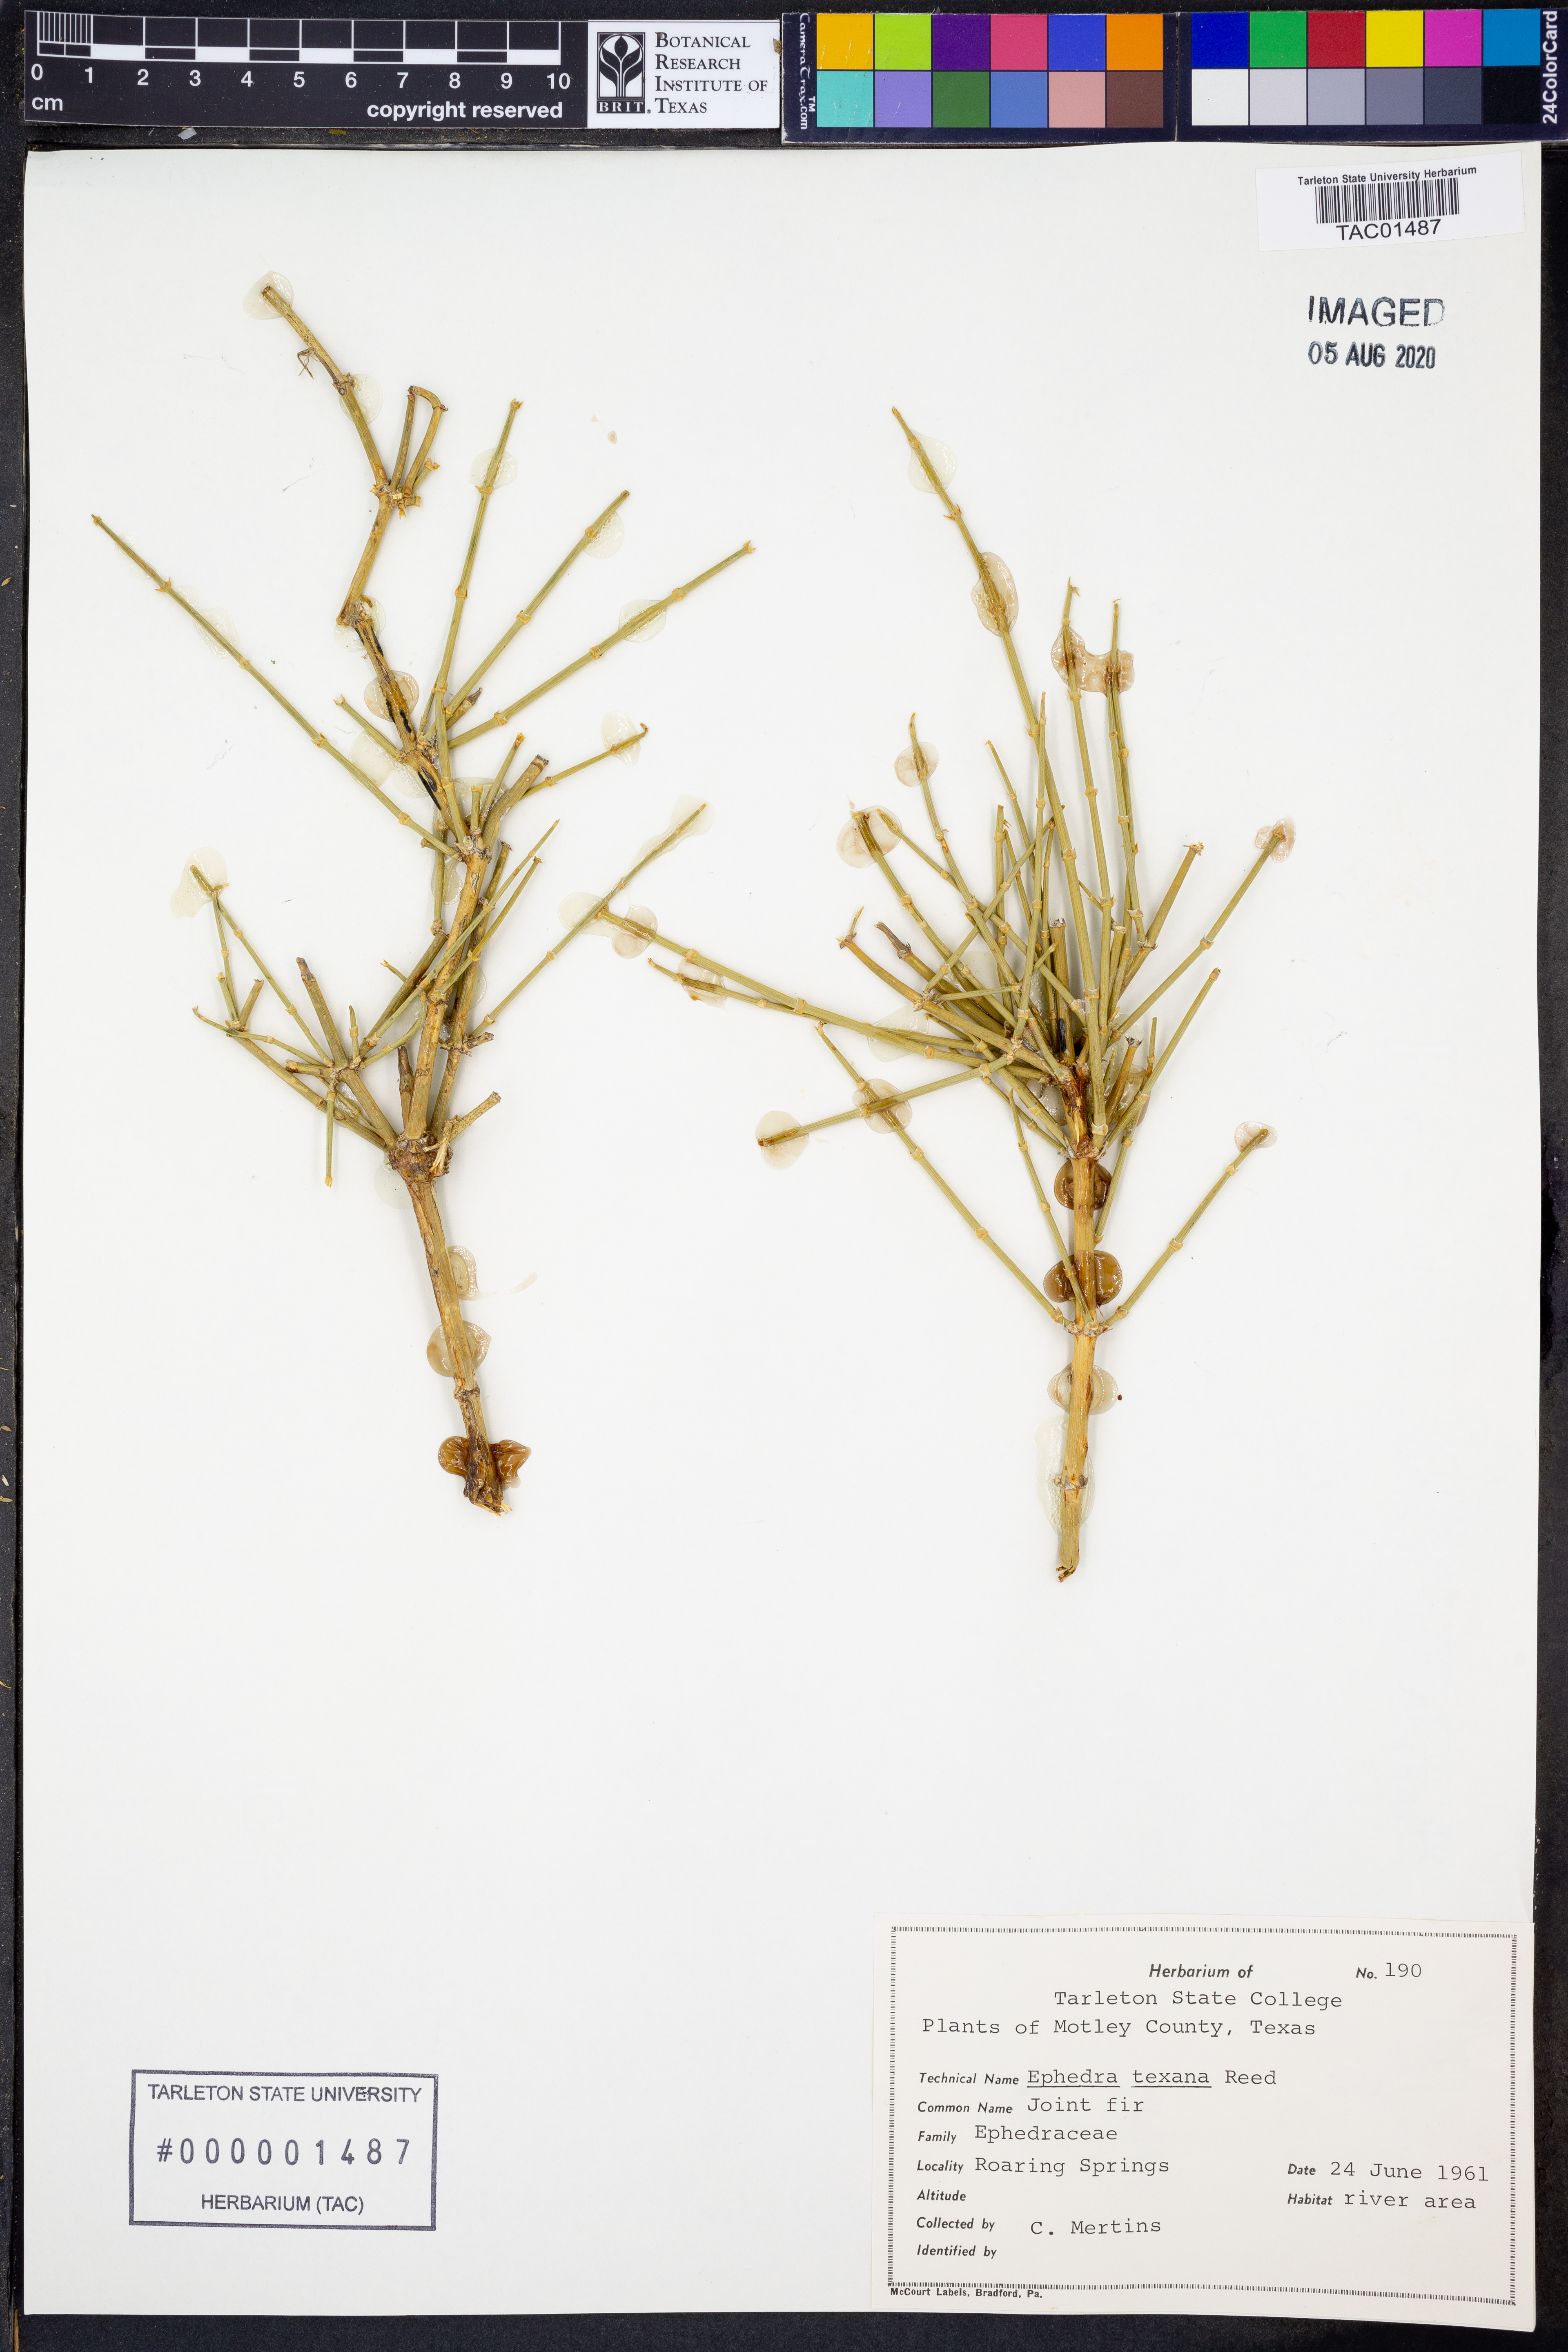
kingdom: Plantae
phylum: Tracheophyta
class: Gnetopsida
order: Ephedrales
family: Ephedraceae
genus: Ephedra
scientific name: Ephedra antisyphilitica
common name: Clipweed
